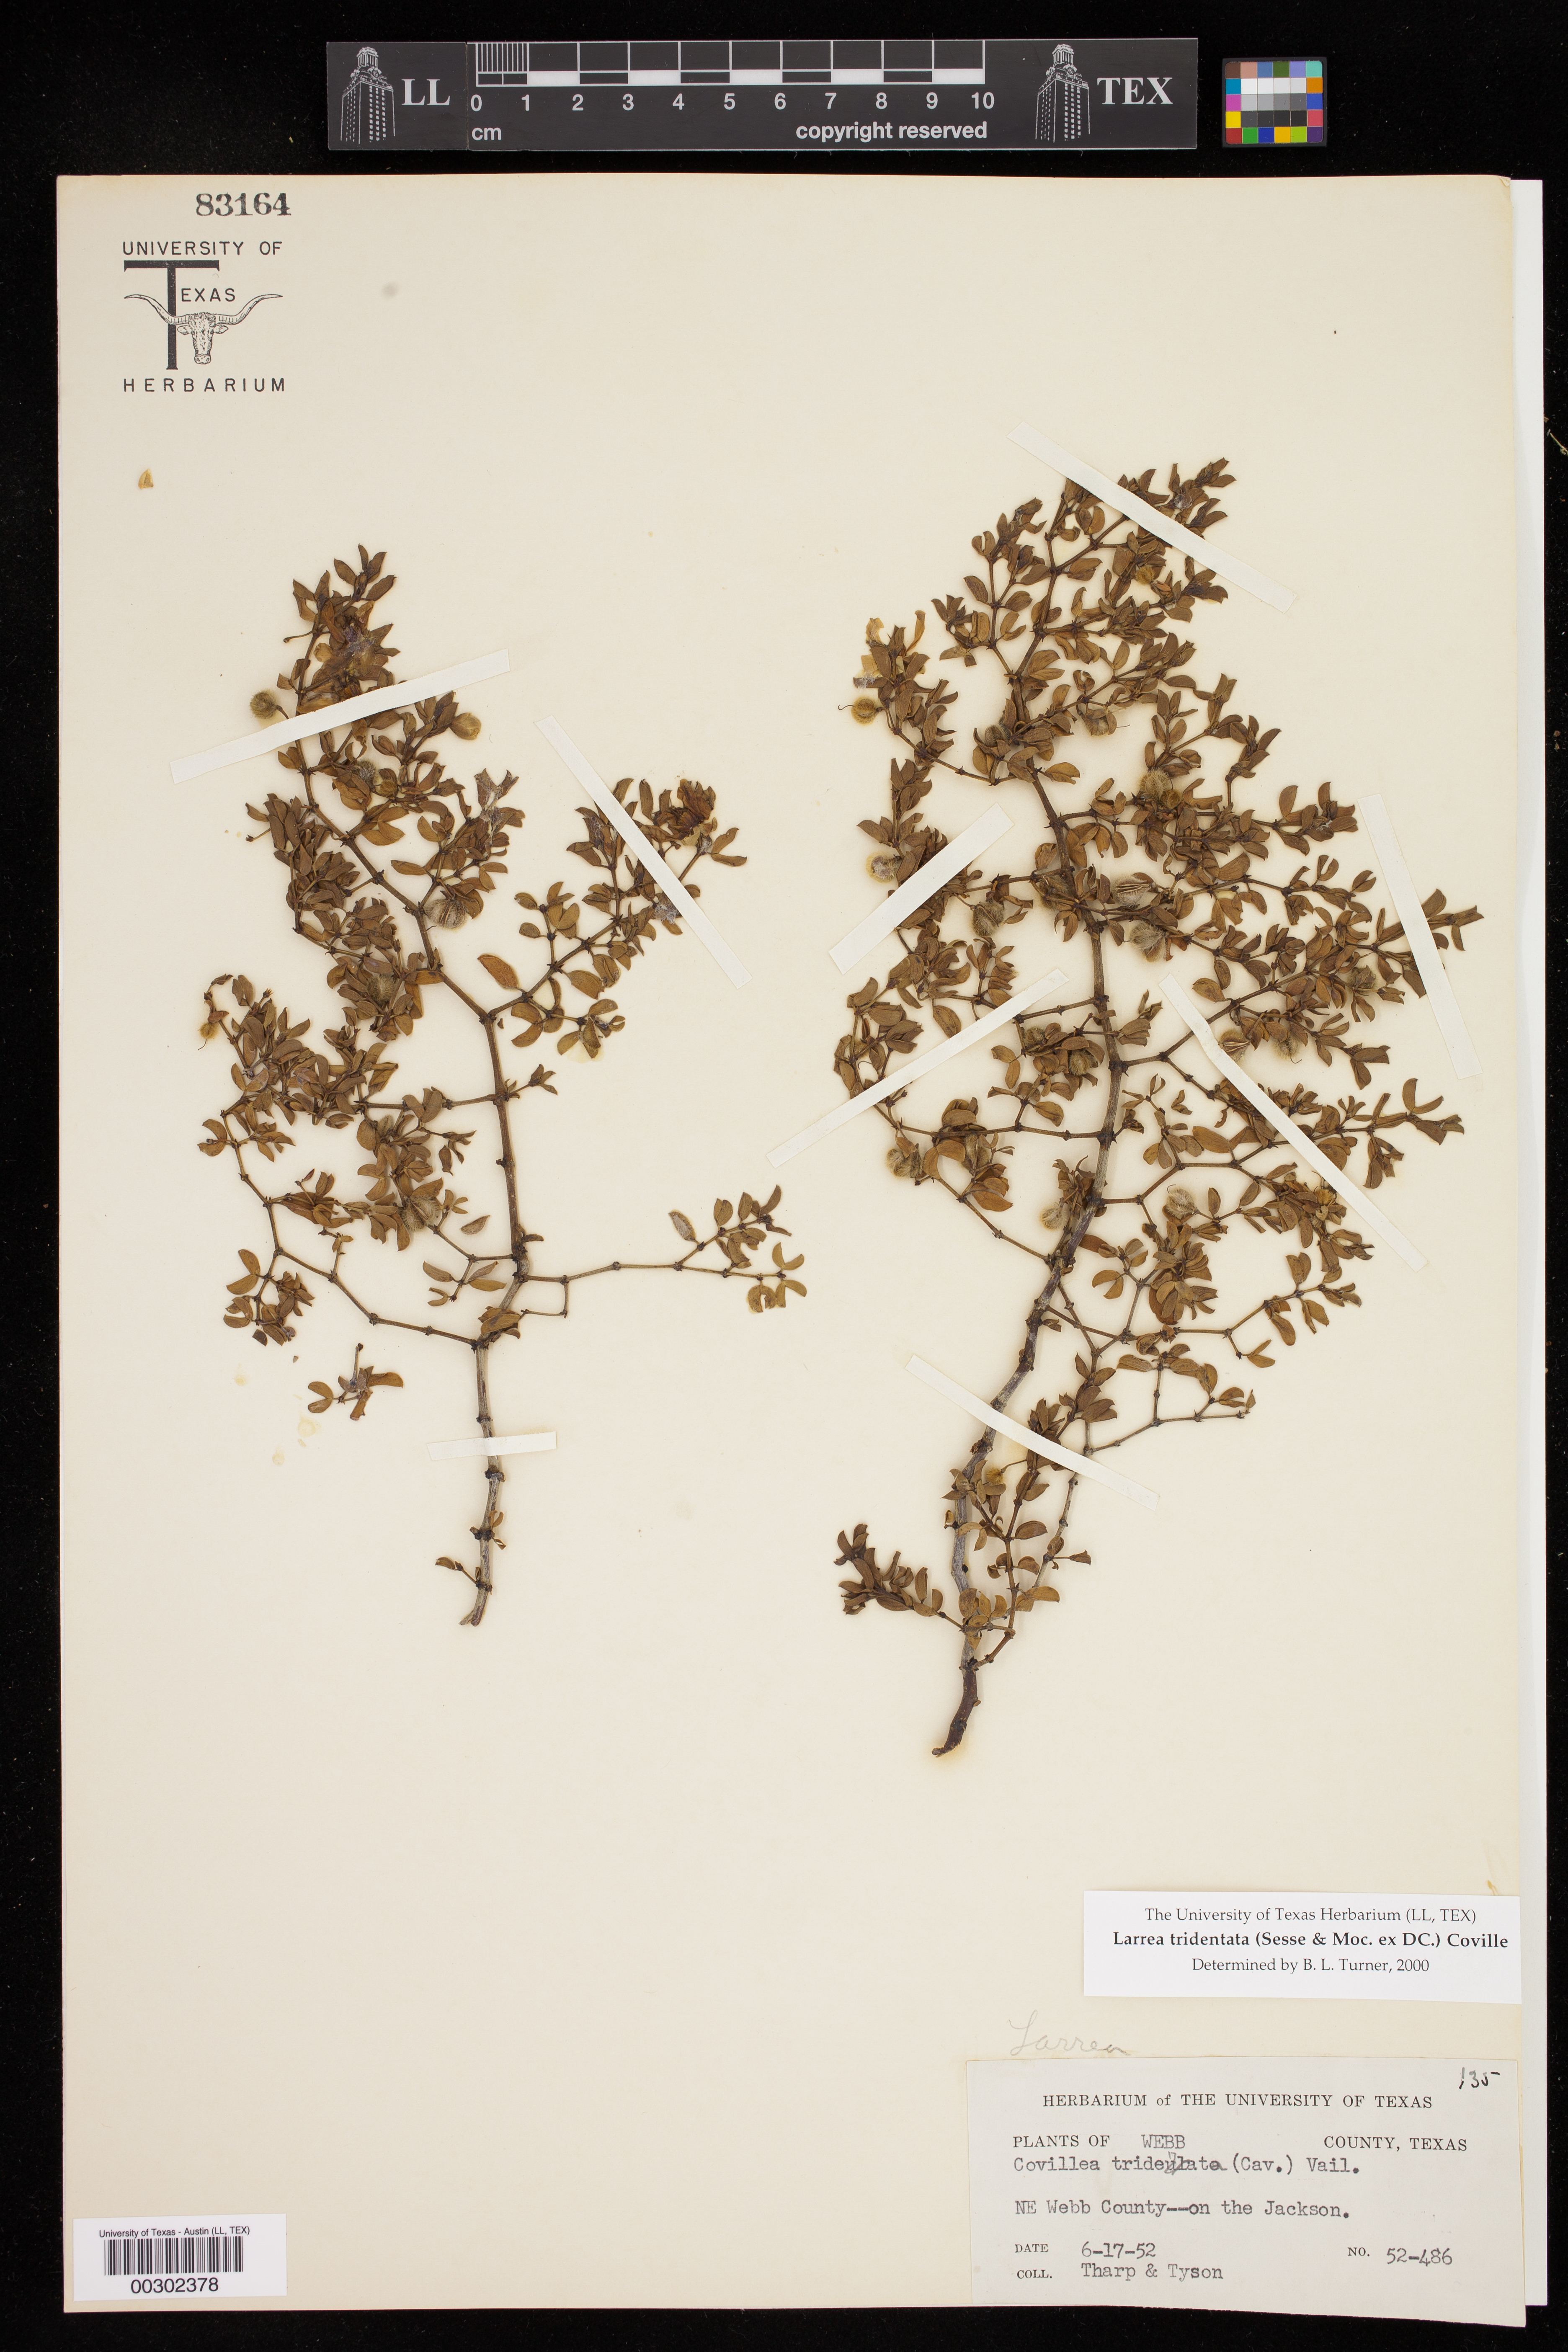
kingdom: Plantae
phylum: Tracheophyta
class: Magnoliopsida
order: Zygophyllales
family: Zygophyllaceae
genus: Larrea
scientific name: Larrea tridentata
